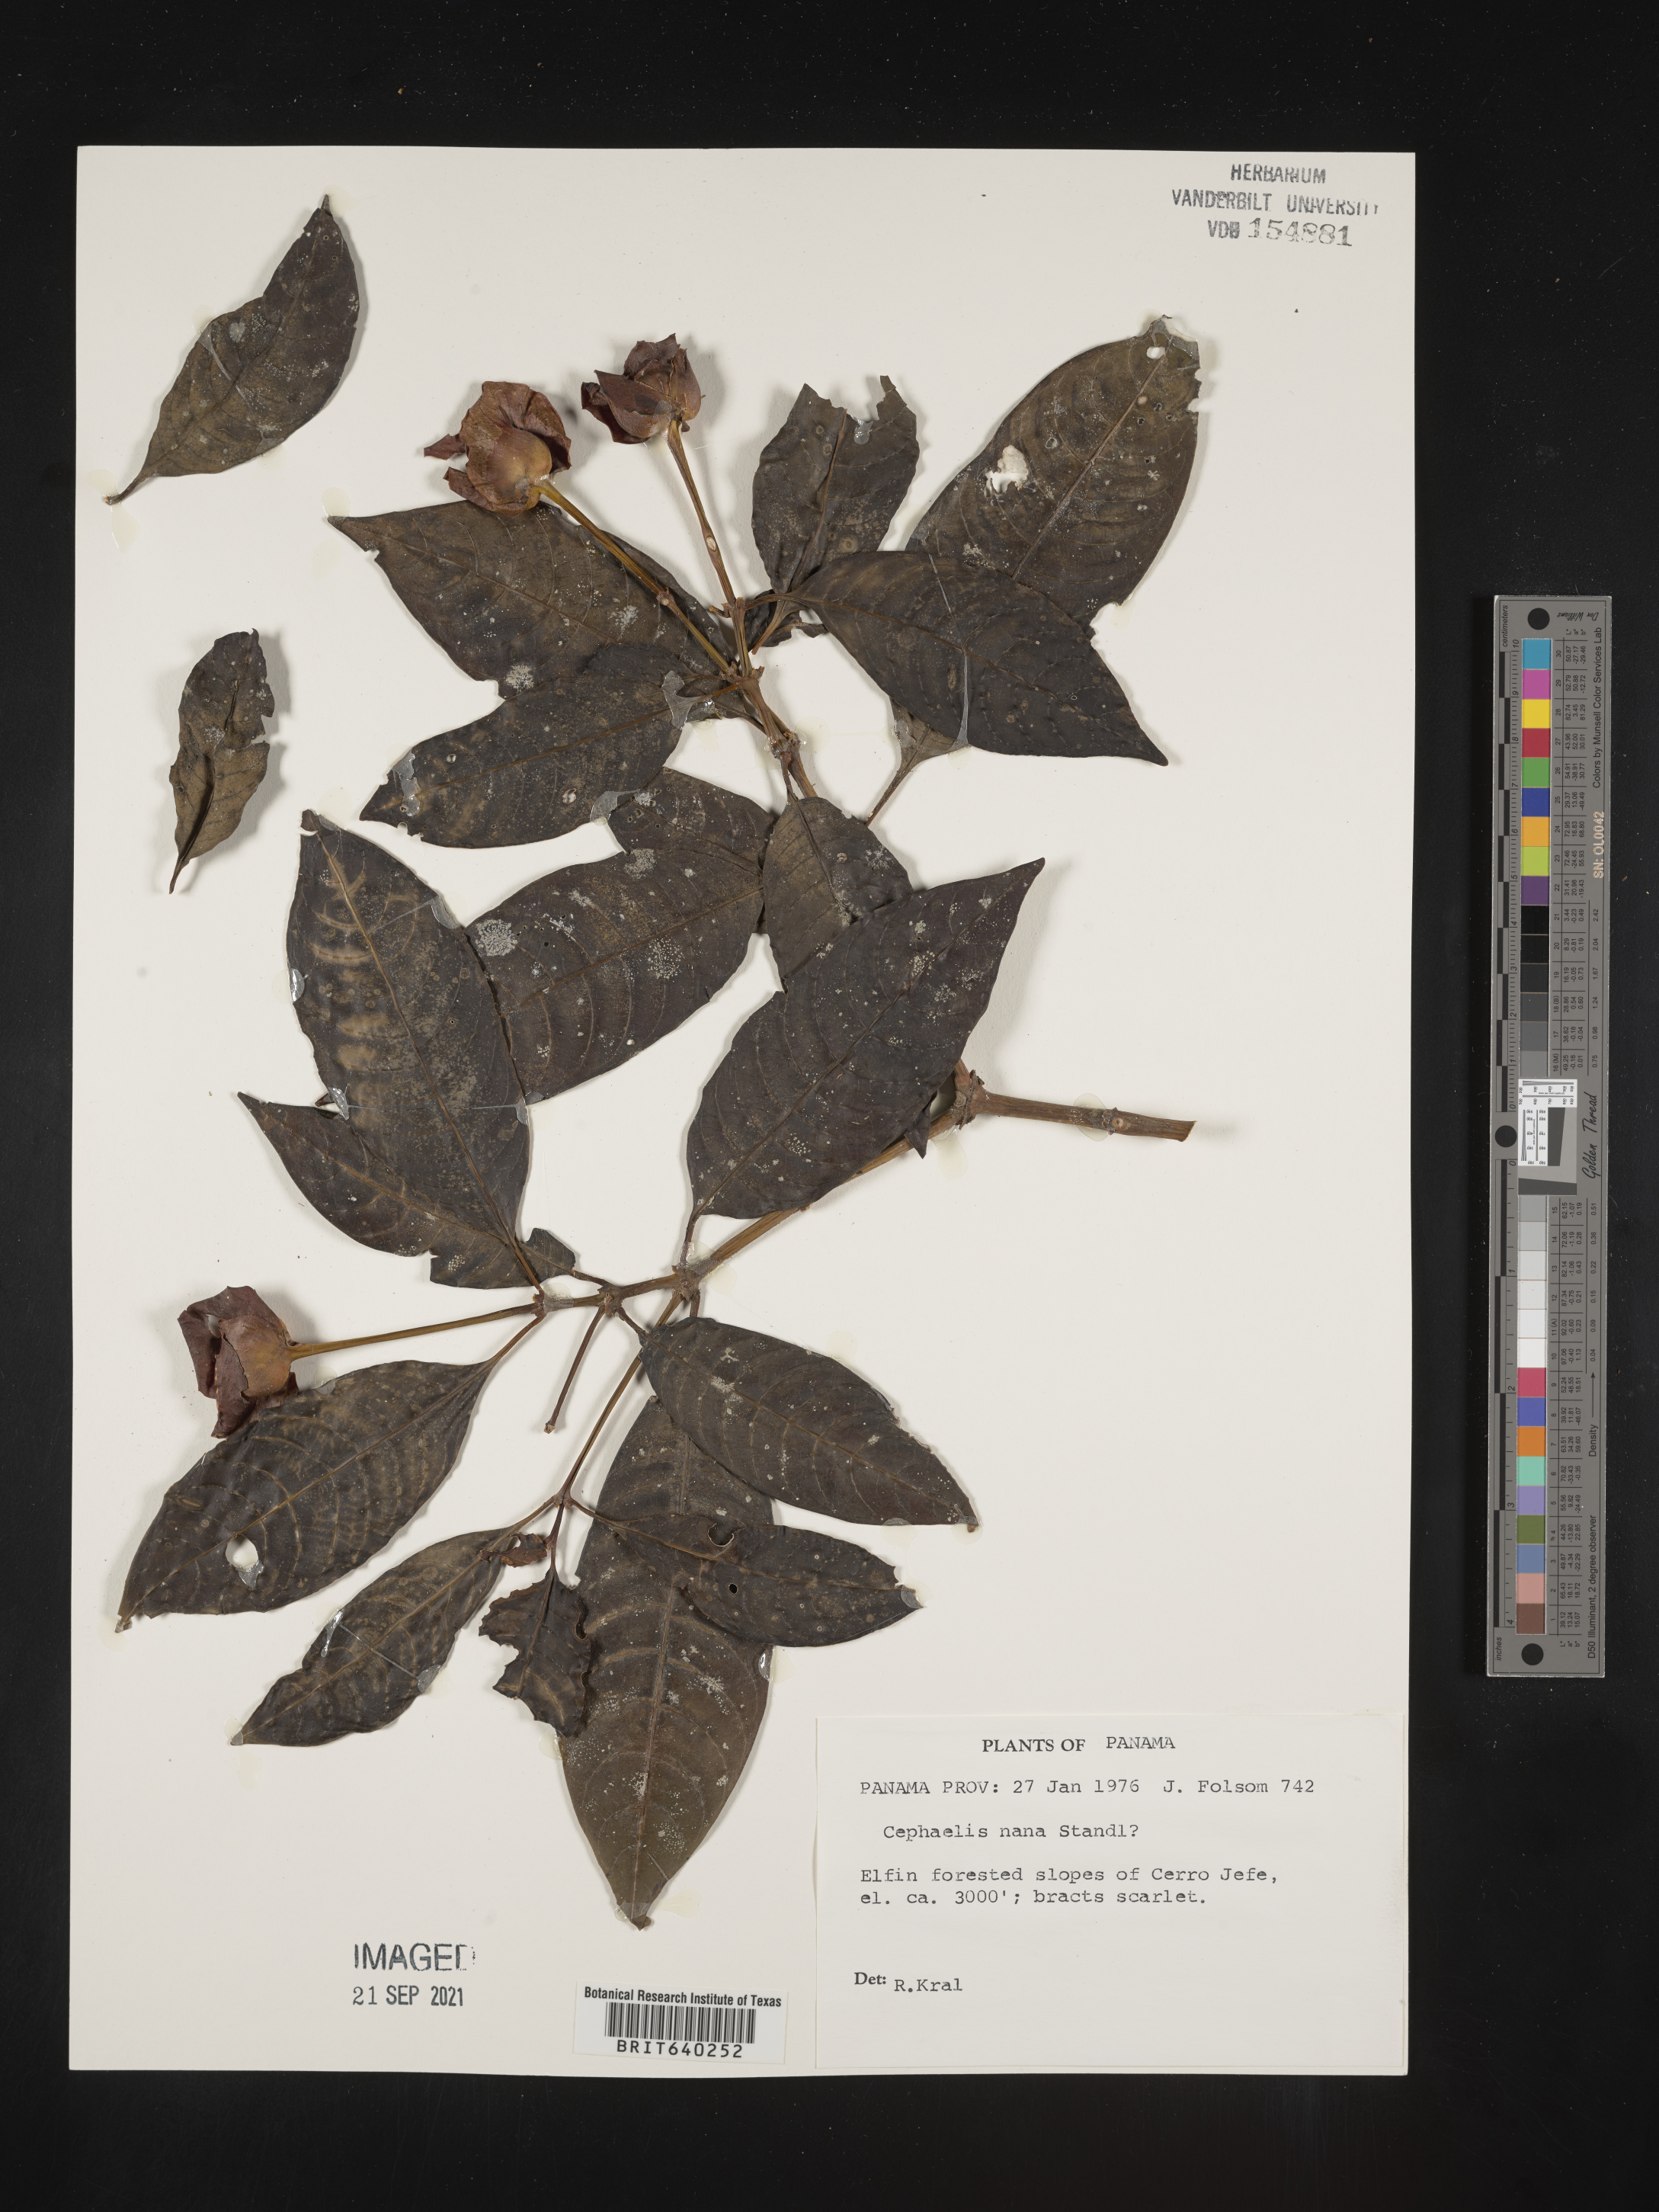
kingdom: Plantae
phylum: Tracheophyta
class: Magnoliopsida
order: Gentianales
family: Rubiaceae
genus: Psychotria
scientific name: Psychotria
